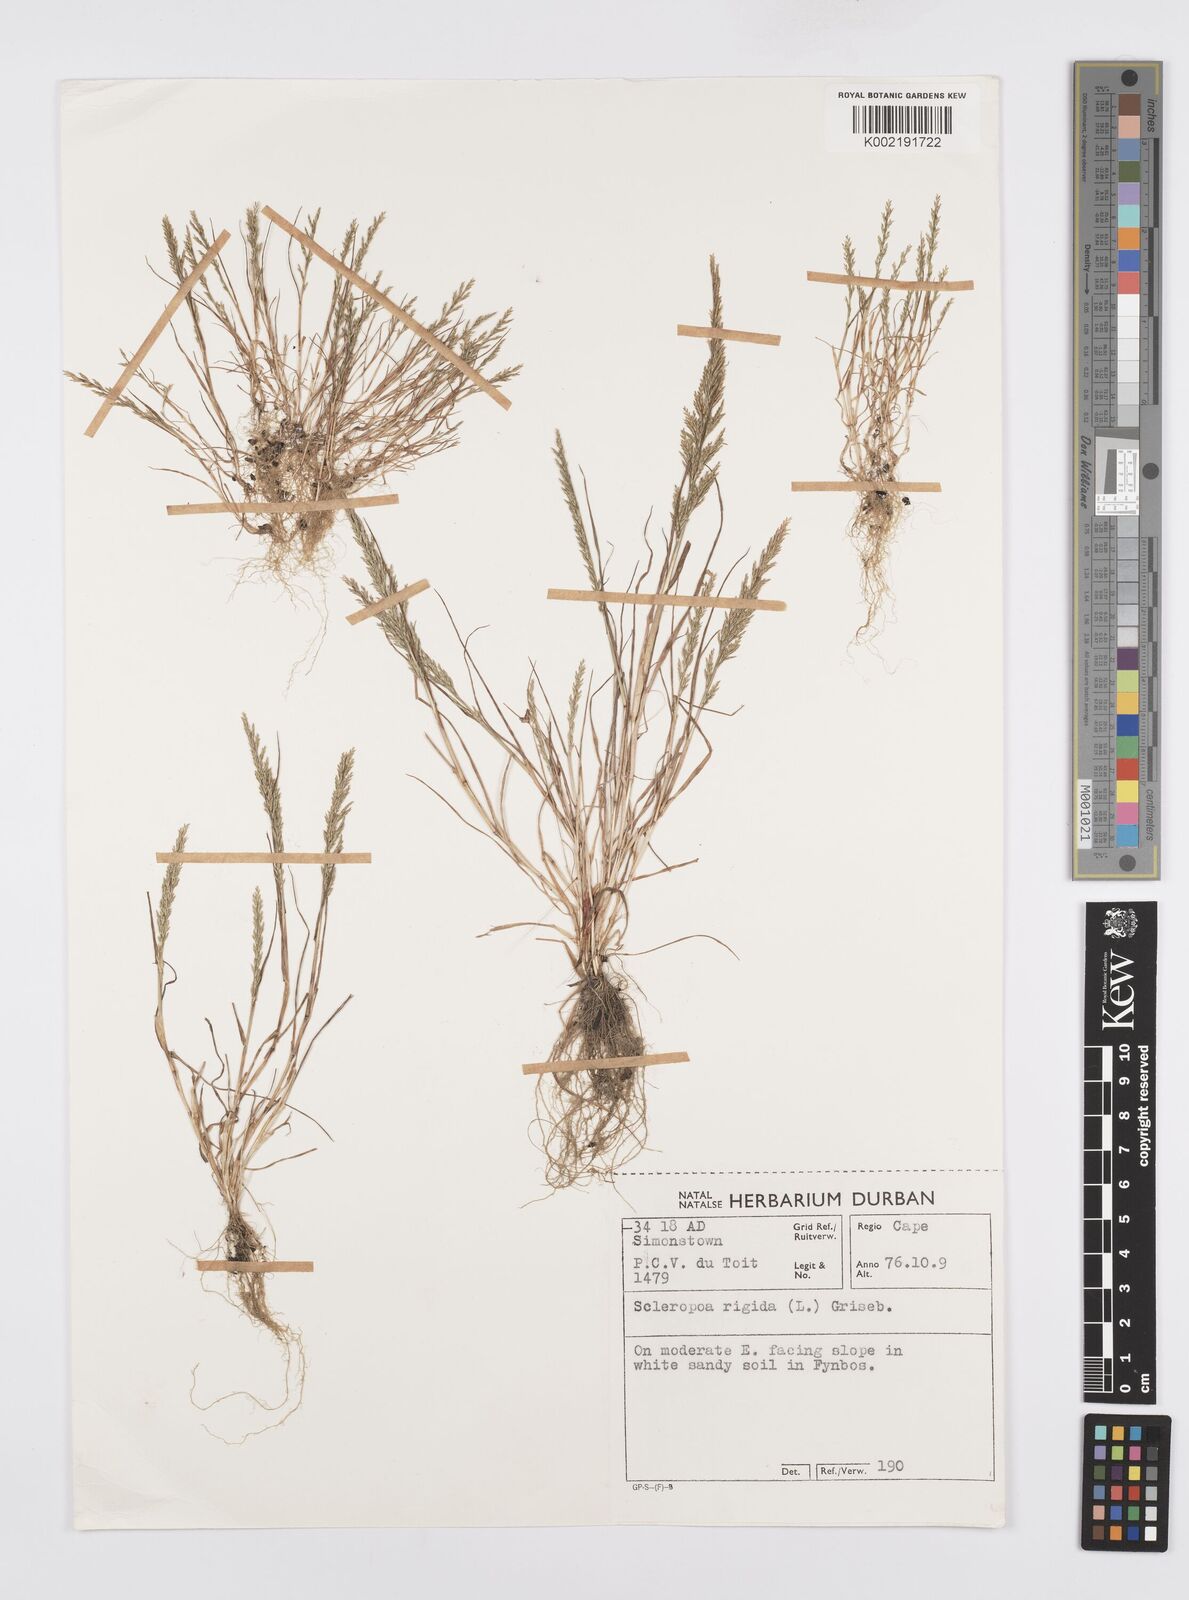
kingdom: Plantae
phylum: Tracheophyta
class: Liliopsida
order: Poales
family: Poaceae
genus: Catapodium
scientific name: Catapodium rigidum
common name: Fern-grass
